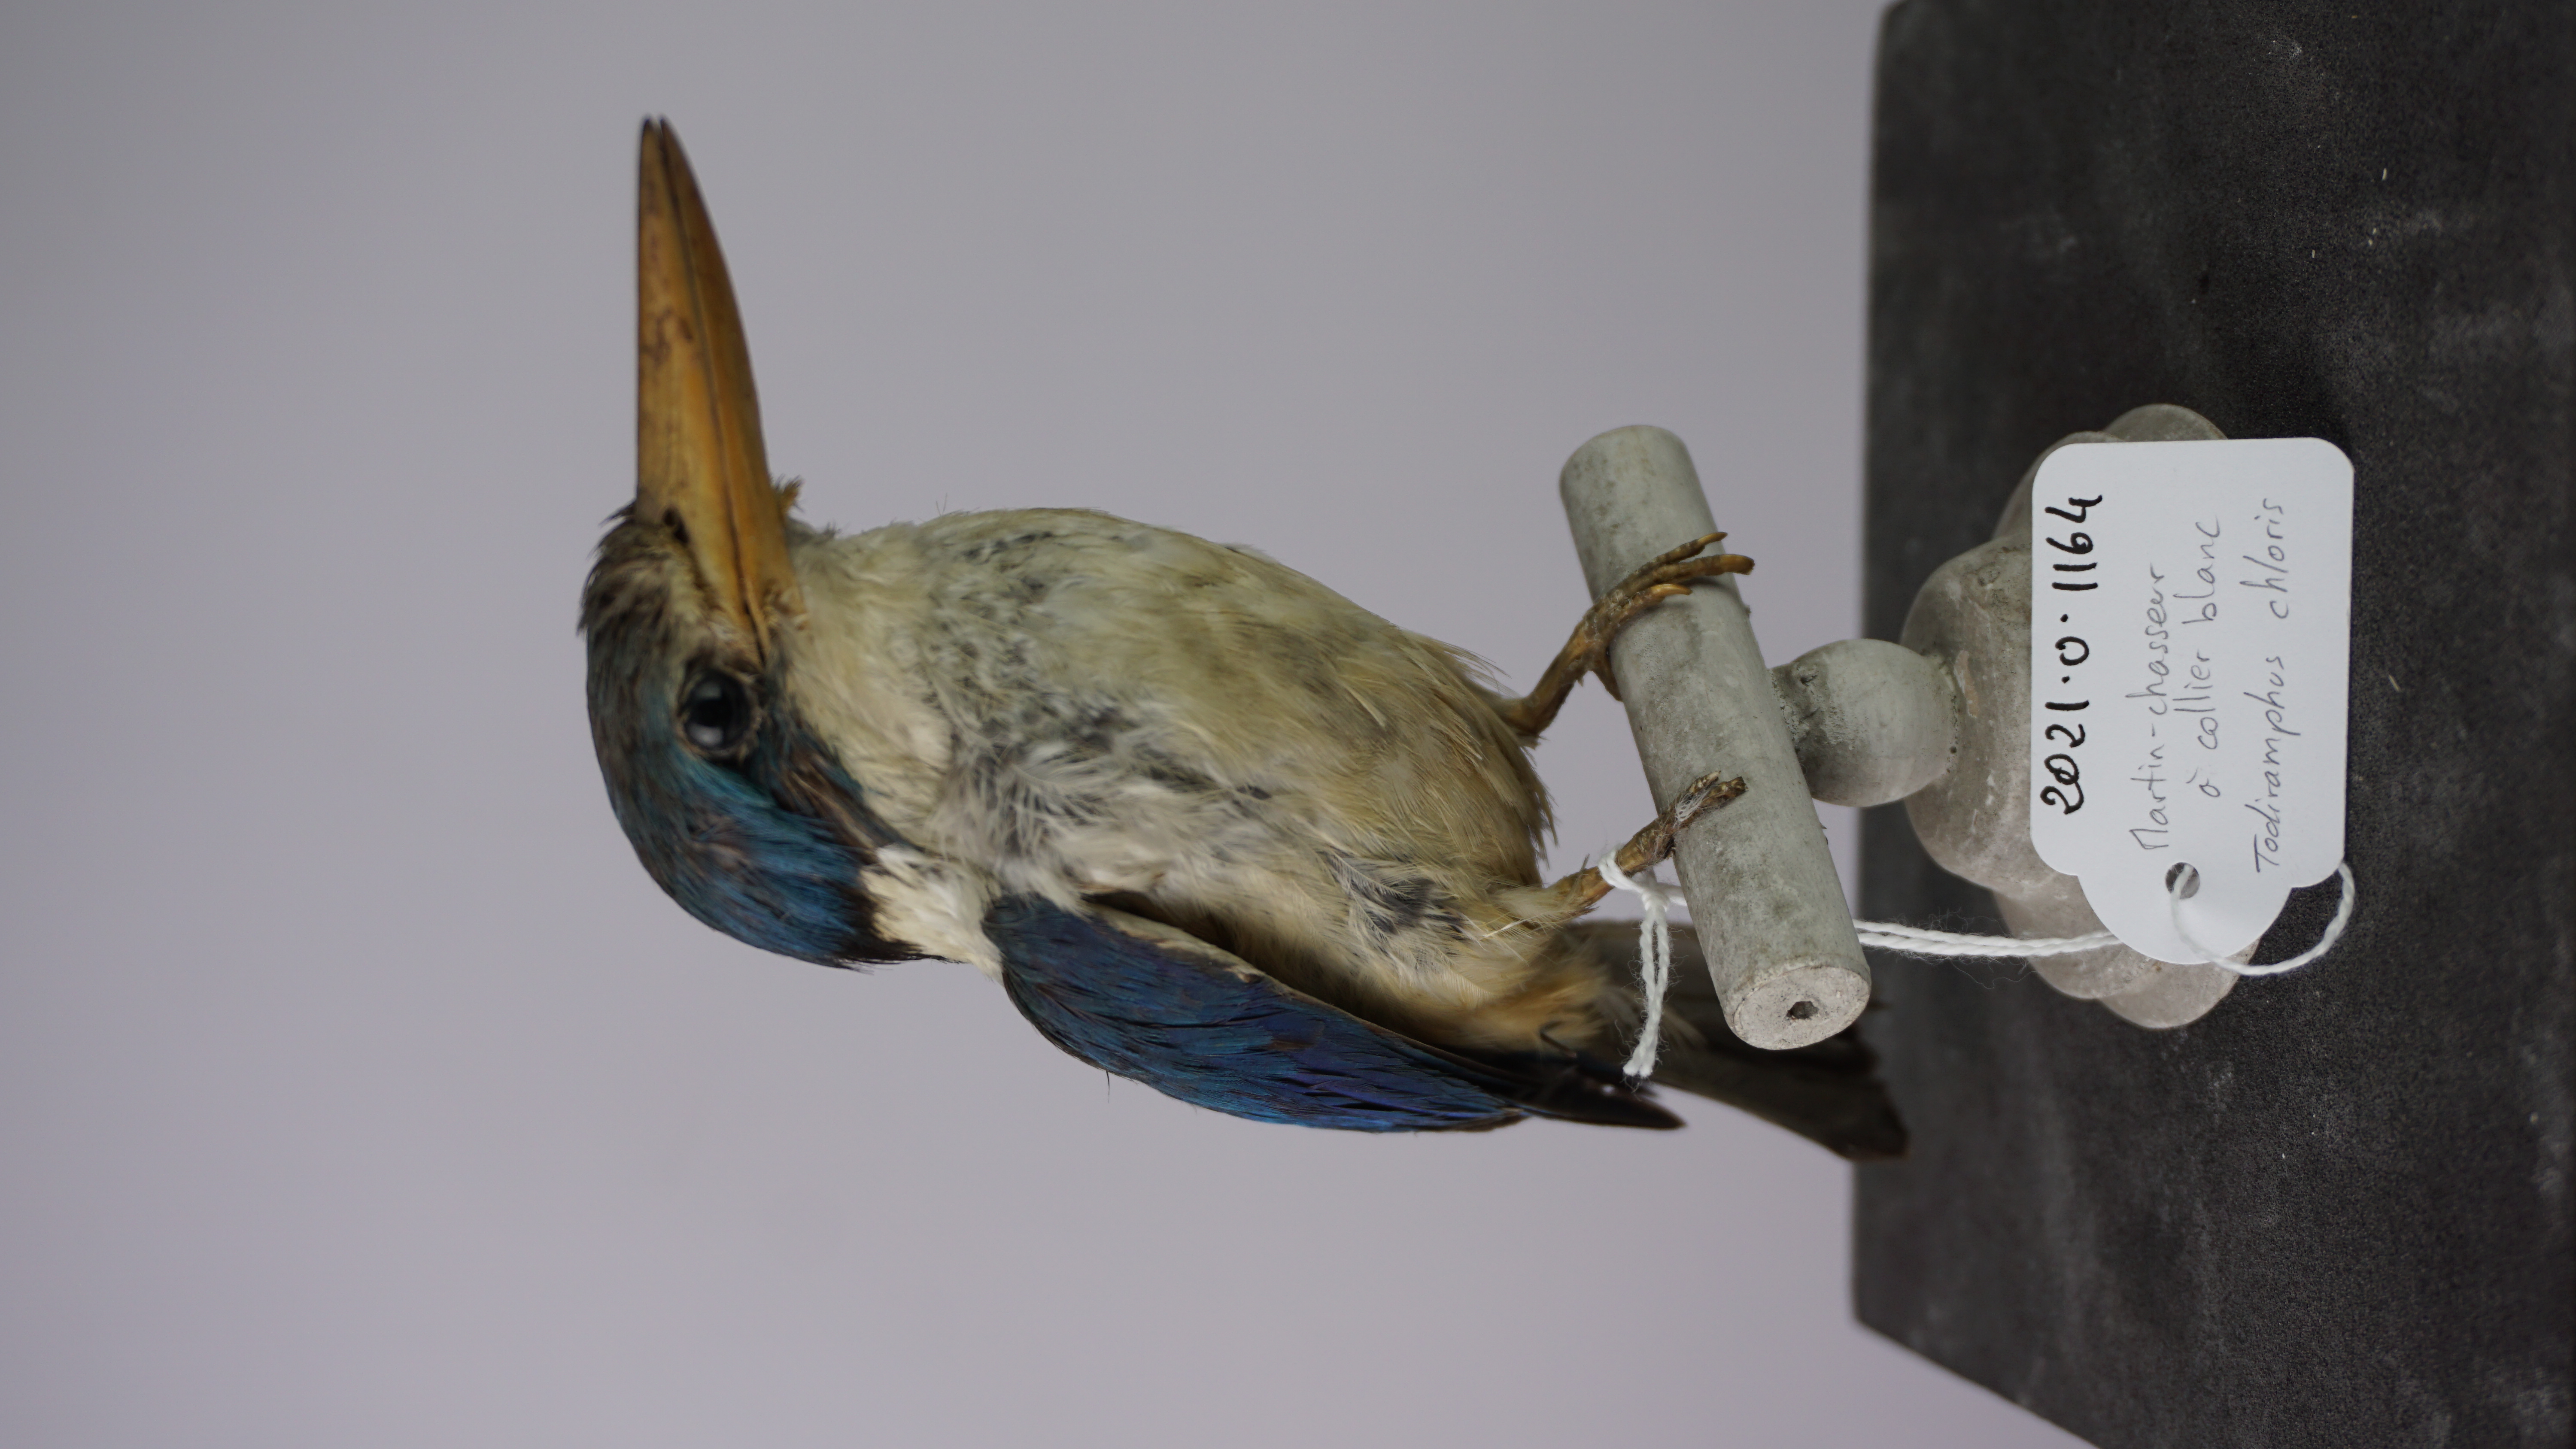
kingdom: Animalia
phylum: Chordata
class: Aves
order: Coraciiformes
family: Alcedinidae
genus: Todiramphus
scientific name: Todiramphus chloris
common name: Collared kingfisher
